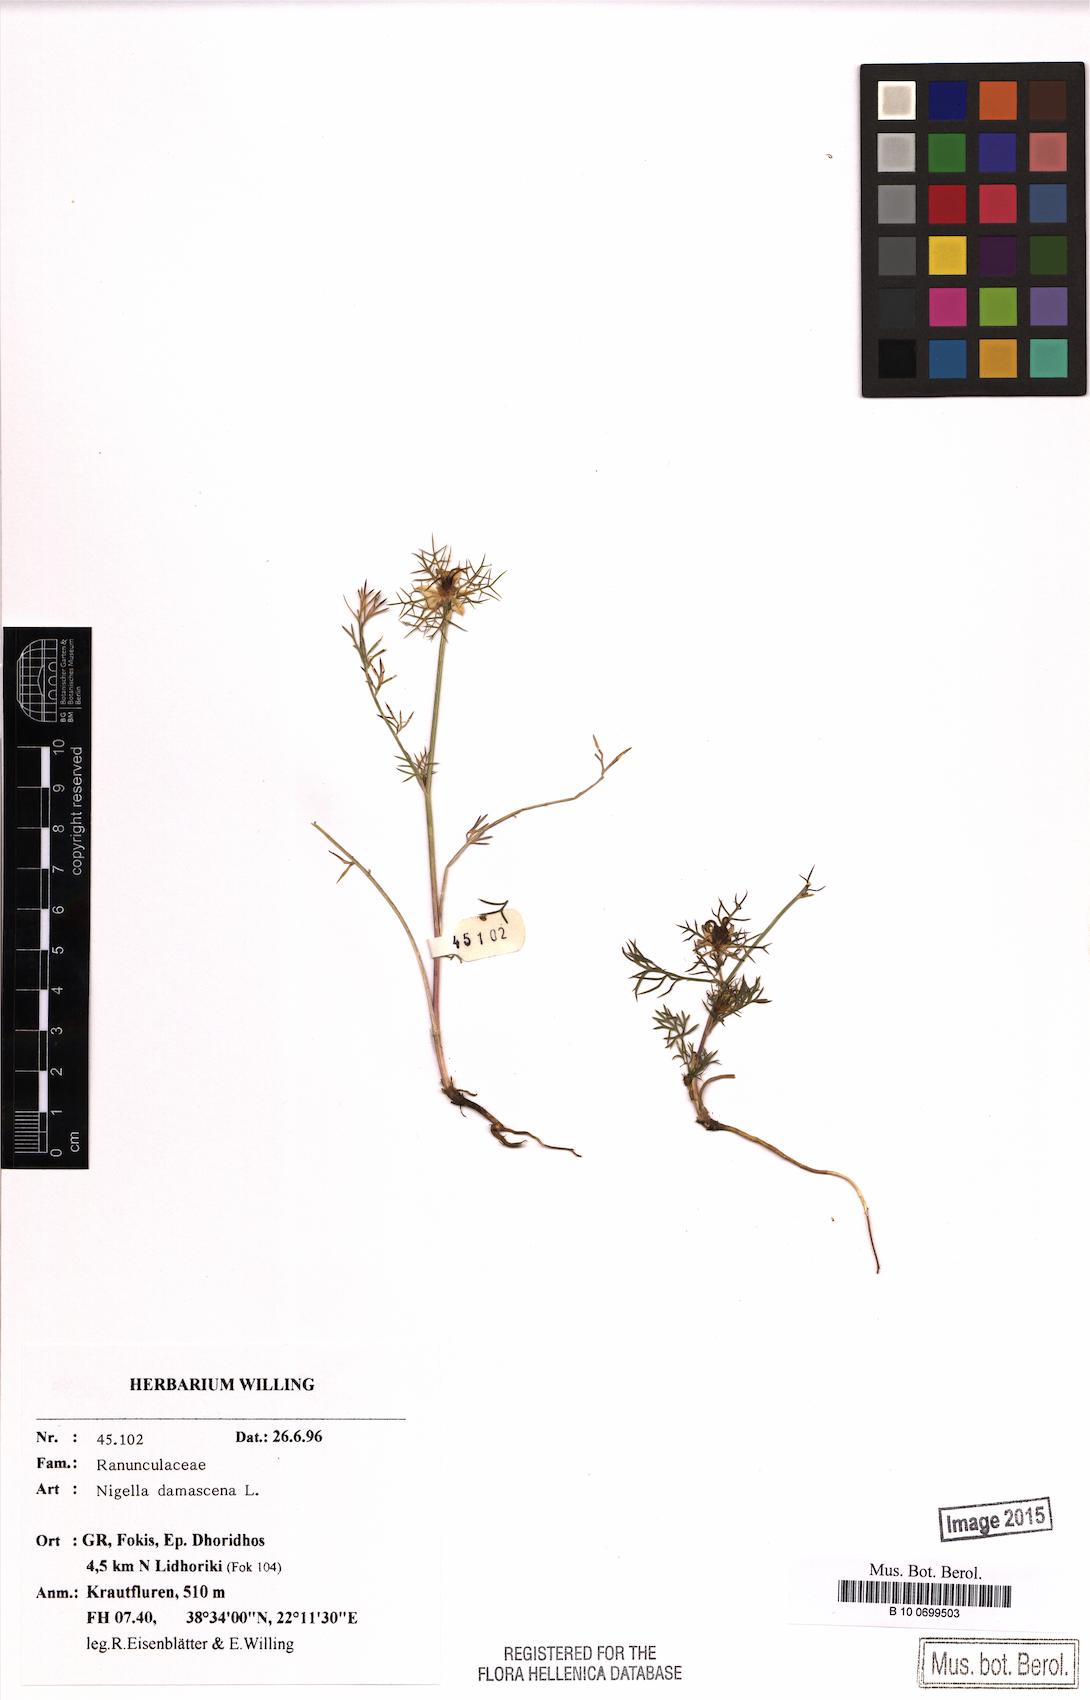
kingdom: Plantae
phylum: Tracheophyta
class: Magnoliopsida
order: Ranunculales
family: Ranunculaceae
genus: Nigella
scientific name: Nigella damascena
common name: Love-in-a-mist
